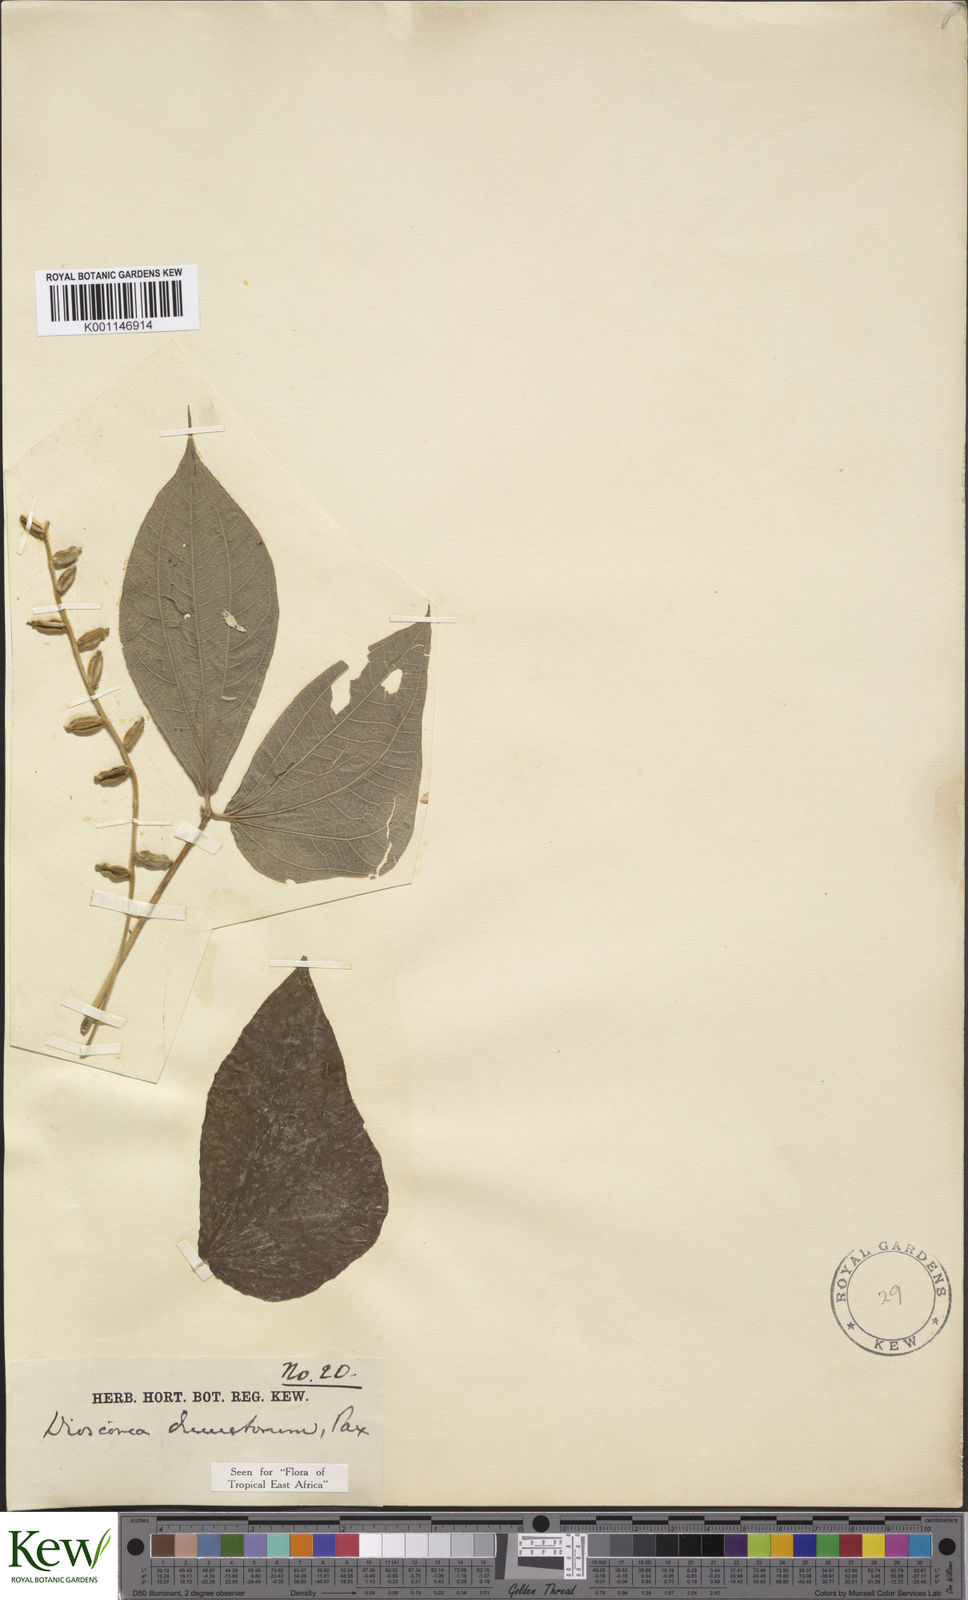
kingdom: Plantae
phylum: Tracheophyta
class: Liliopsida
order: Dioscoreales
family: Dioscoreaceae
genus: Dioscorea
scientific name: Dioscorea dumetorum
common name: African bitter yam
